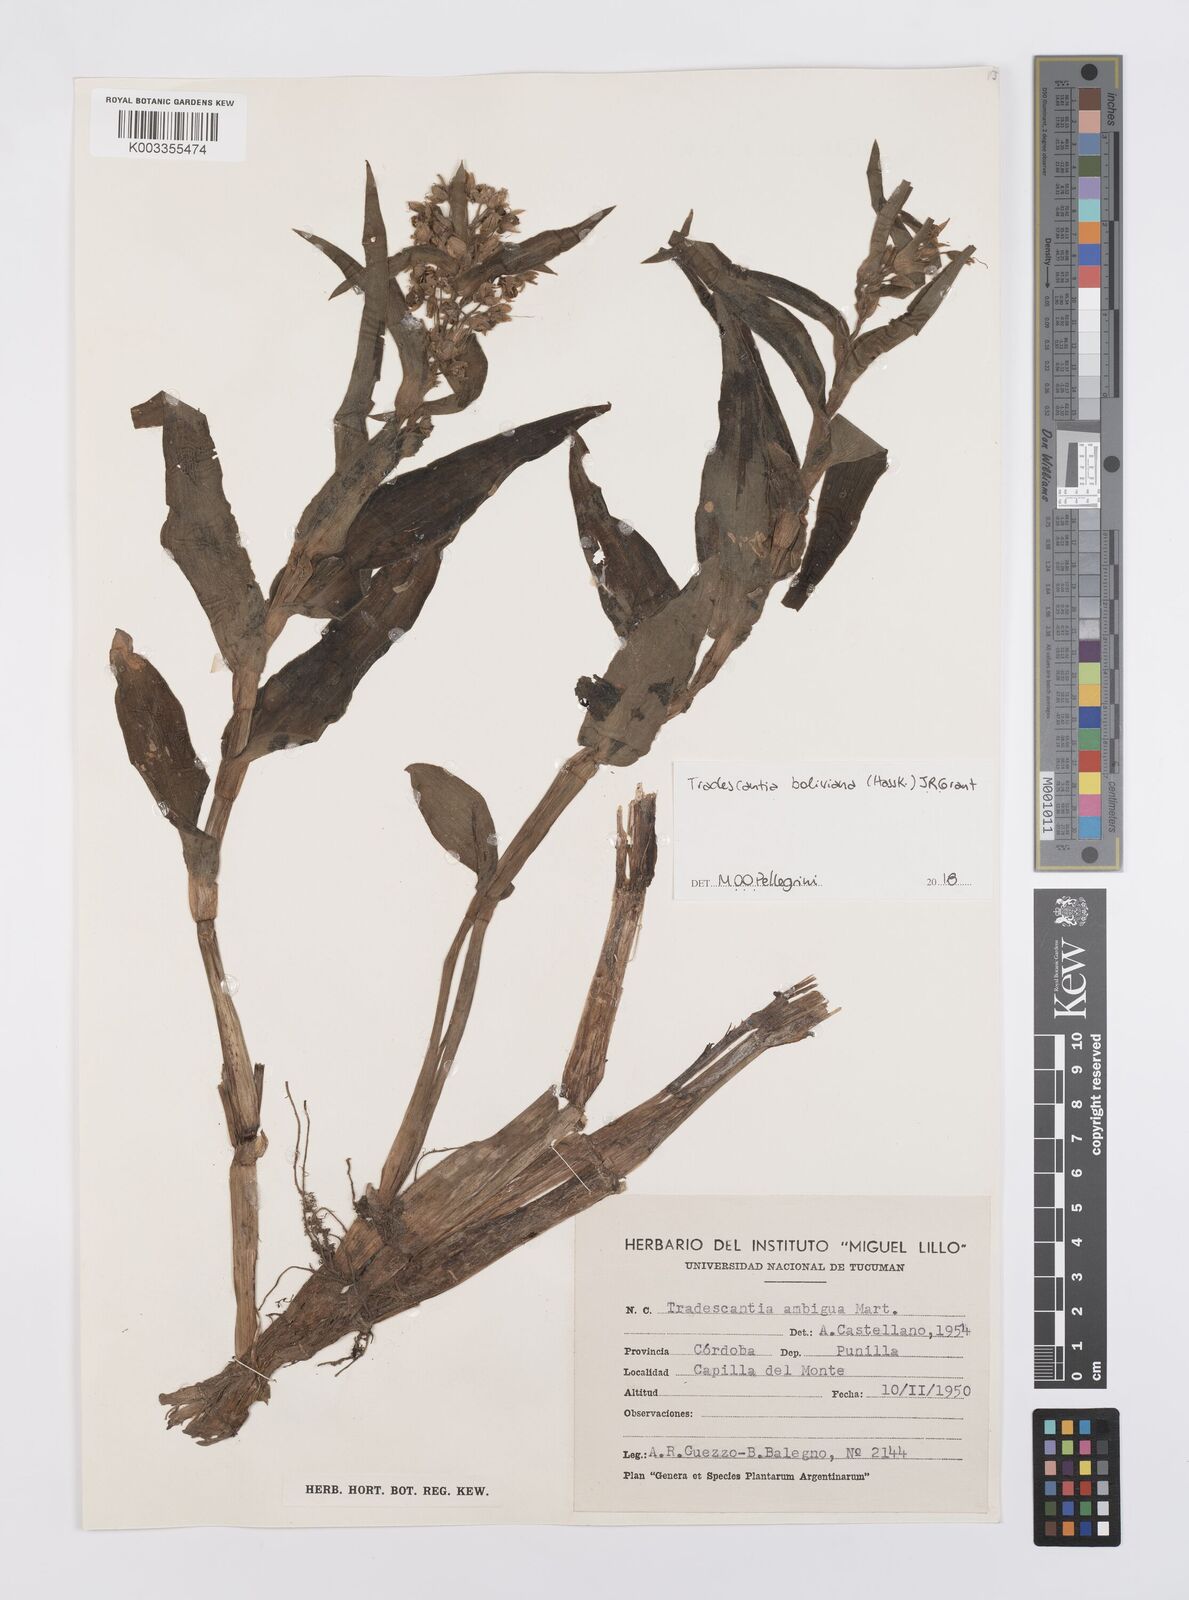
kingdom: Plantae
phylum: Tracheophyta
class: Liliopsida
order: Commelinales
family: Commelinaceae
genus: Tradescantia
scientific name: Tradescantia boliviana
